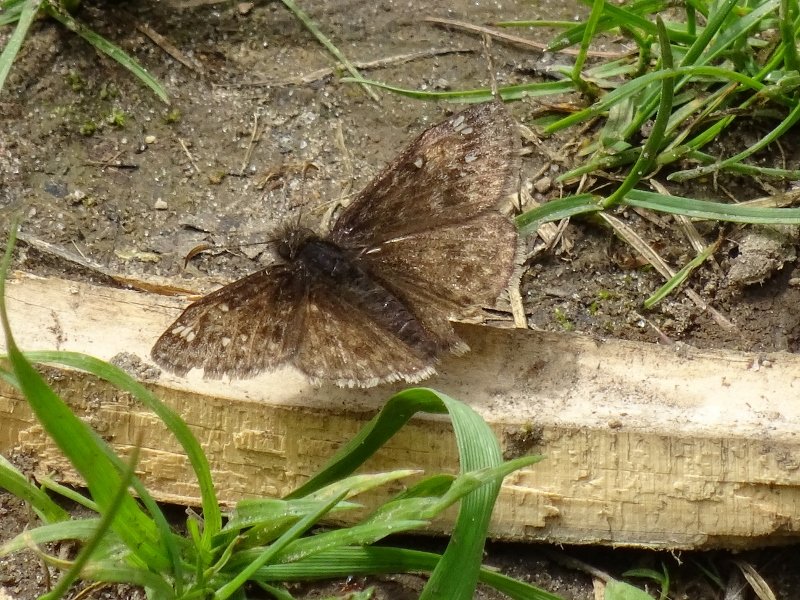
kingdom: Animalia
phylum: Arthropoda
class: Insecta
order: Lepidoptera
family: Hesperiidae
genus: Gesta
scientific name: Gesta
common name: Juvenal's Duskywing
